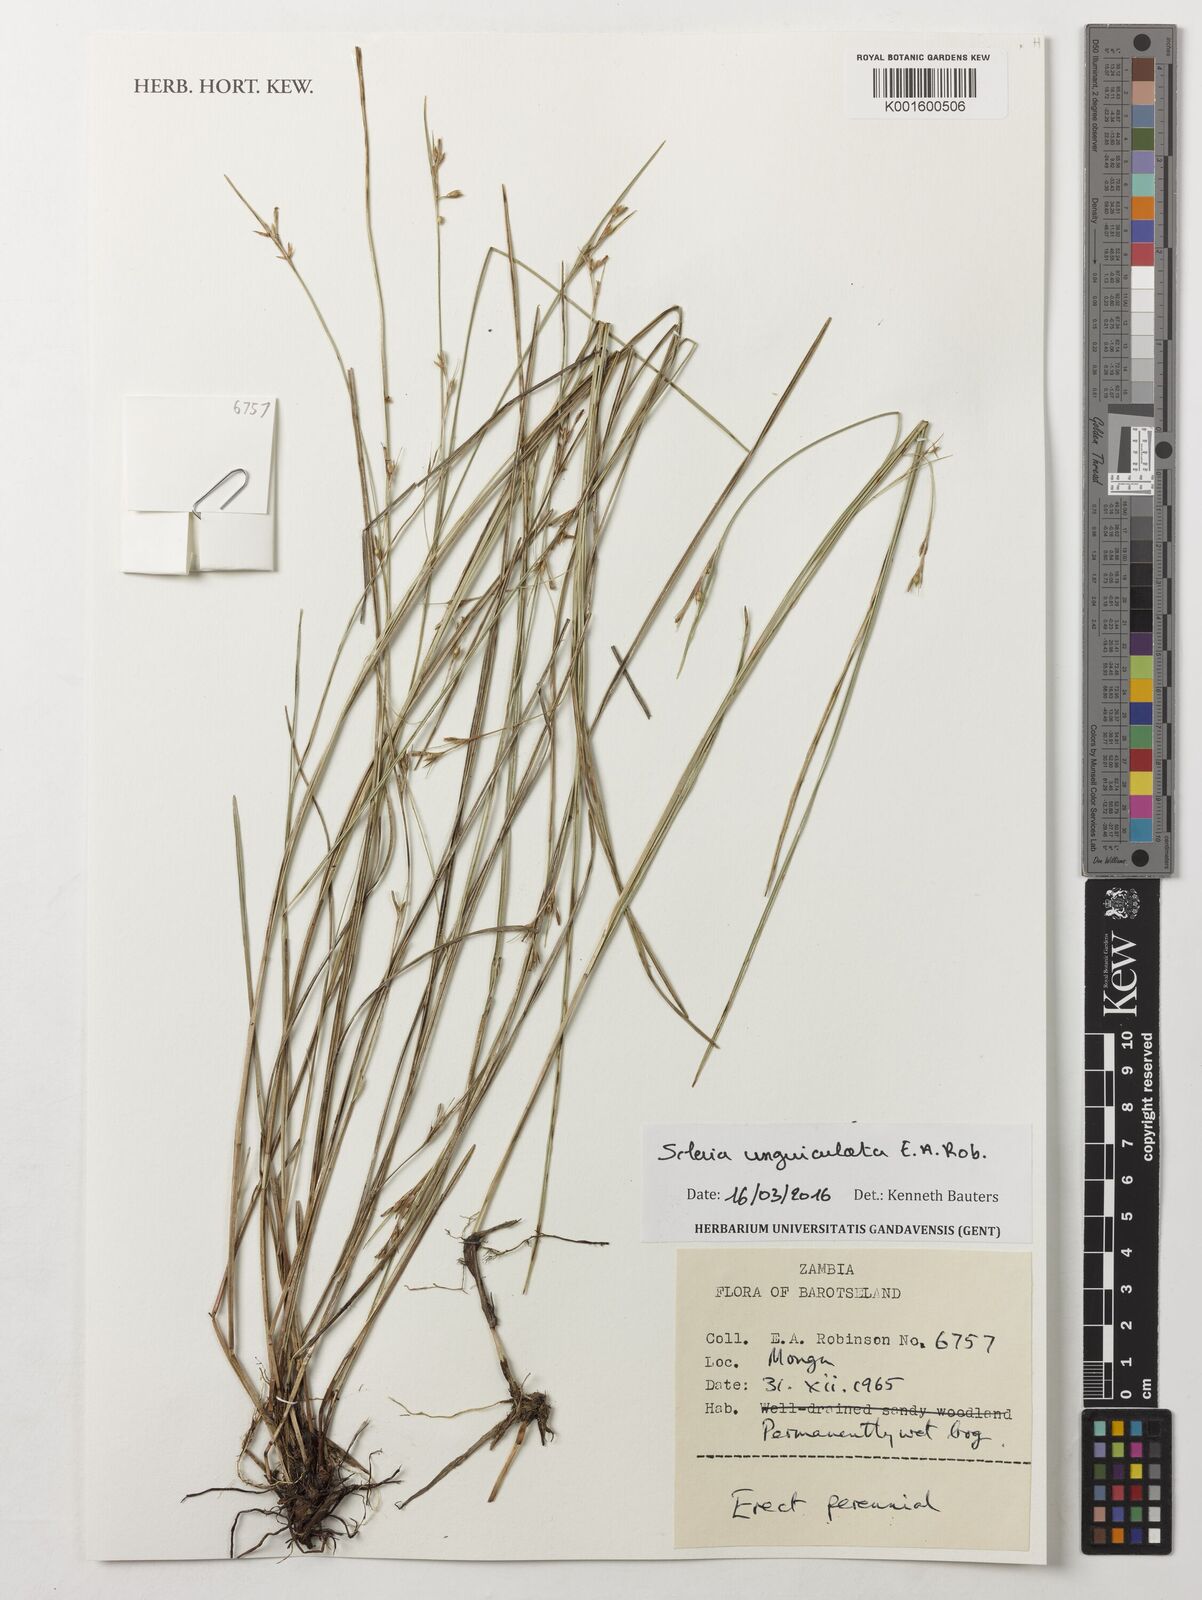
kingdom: Plantae
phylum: Tracheophyta
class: Liliopsida
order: Poales
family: Cyperaceae
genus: Scleria
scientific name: Scleria unguiculata
